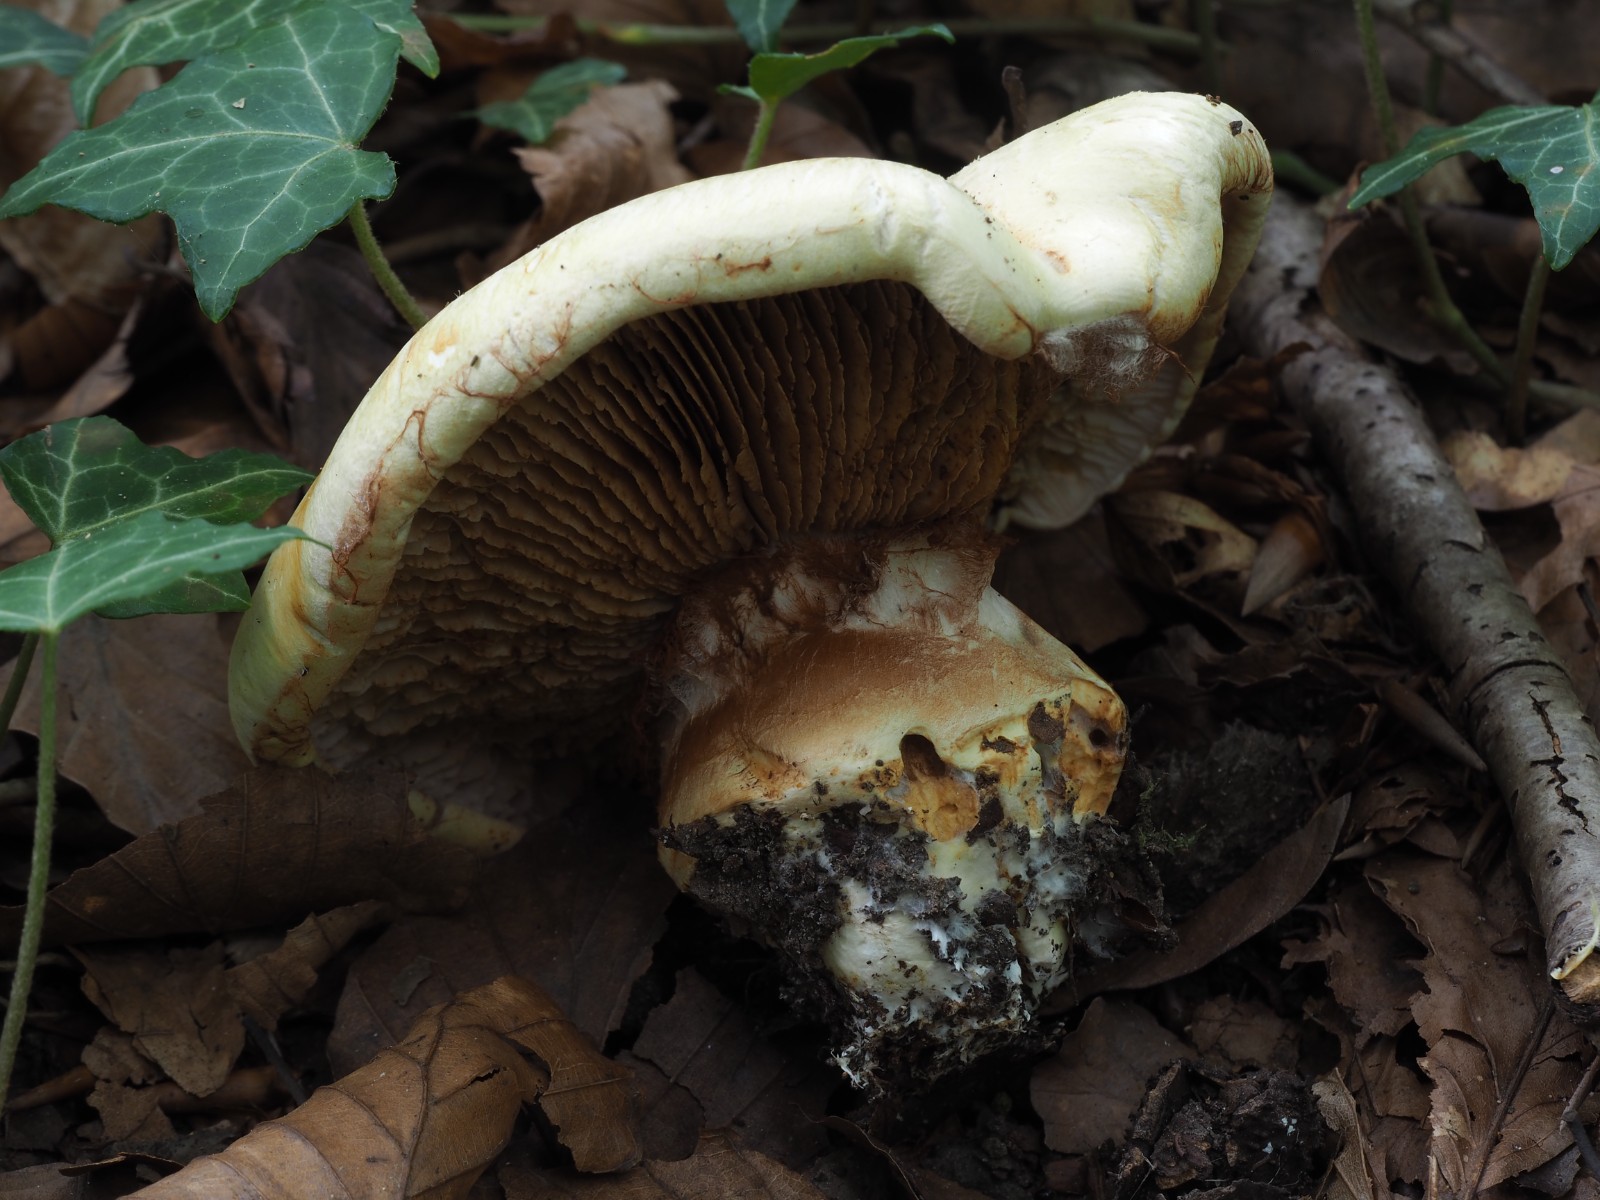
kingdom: Fungi
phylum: Basidiomycota
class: Agaricomycetes
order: Agaricales
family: Cortinariaceae
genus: Phlegmacium
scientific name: Phlegmacium caesiocortinatum
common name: rundsporet slørhat
